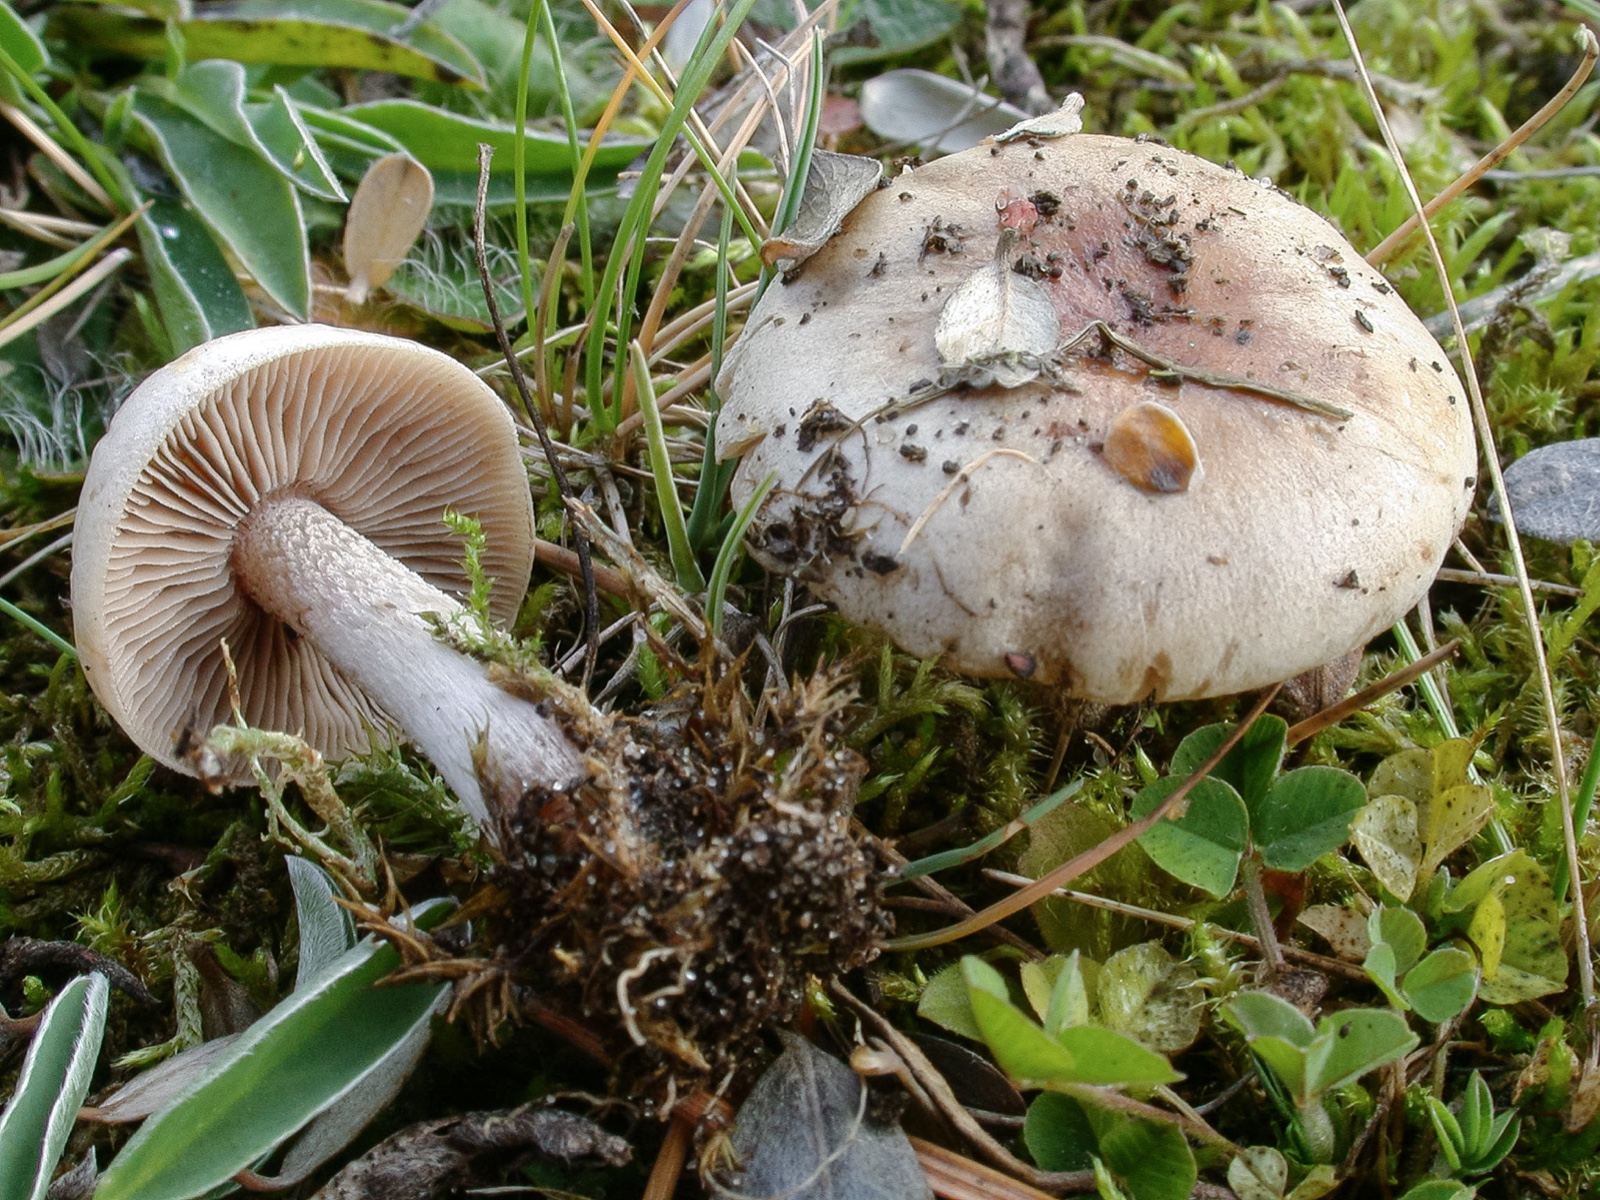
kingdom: Fungi
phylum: Basidiomycota
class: Agaricomycetes
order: Agaricales
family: Hymenogastraceae
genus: Hebeloma
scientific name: Hebeloma aanenii
